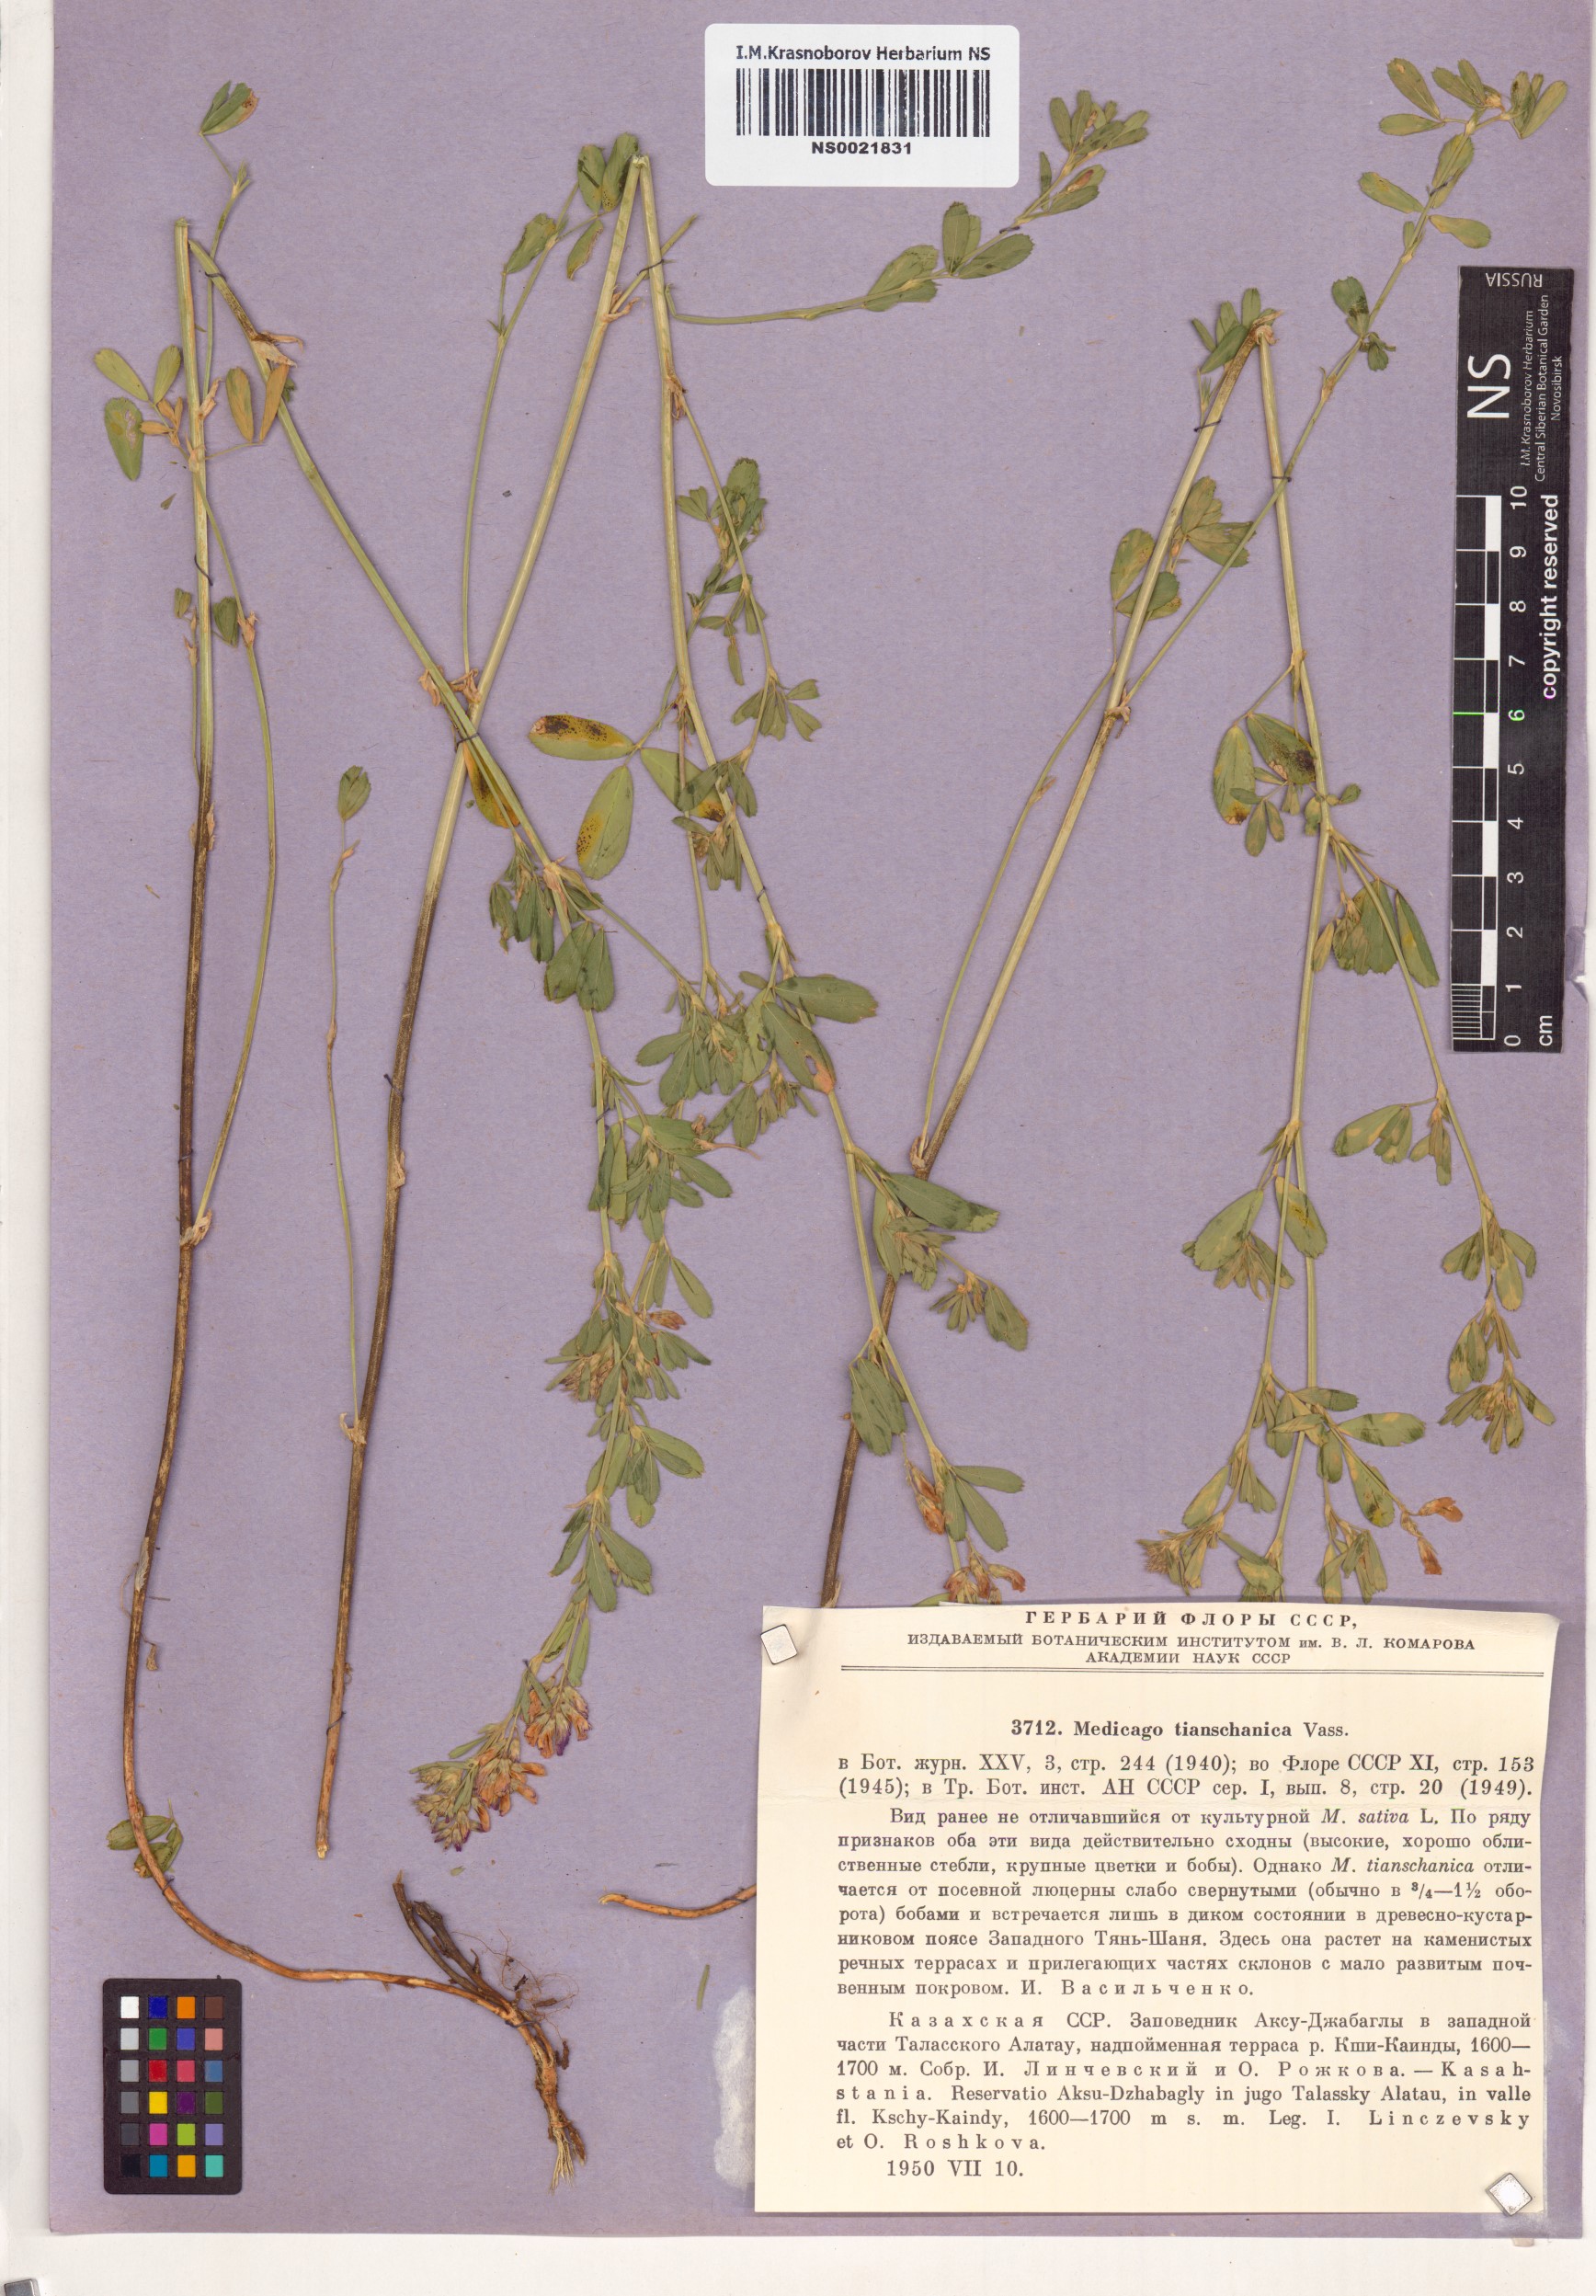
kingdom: Plantae
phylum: Tracheophyta
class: Magnoliopsida
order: Fabales
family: Fabaceae
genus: Medicago
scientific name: Medicago varia
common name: Sand lucerne
